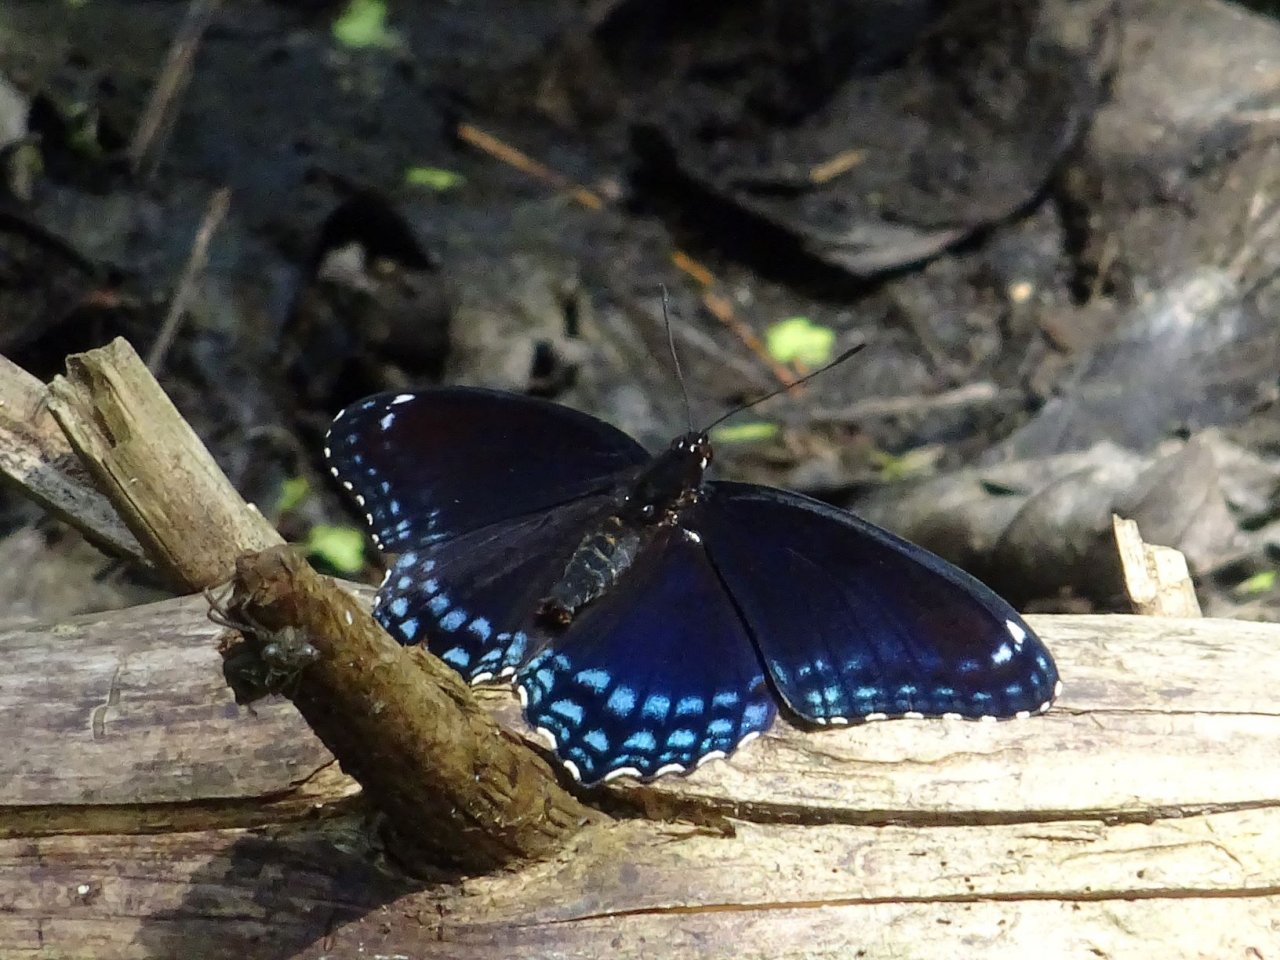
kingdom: Animalia
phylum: Arthropoda
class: Insecta
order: Lepidoptera
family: Nymphalidae
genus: Limenitis
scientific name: Limenitis astyanax
